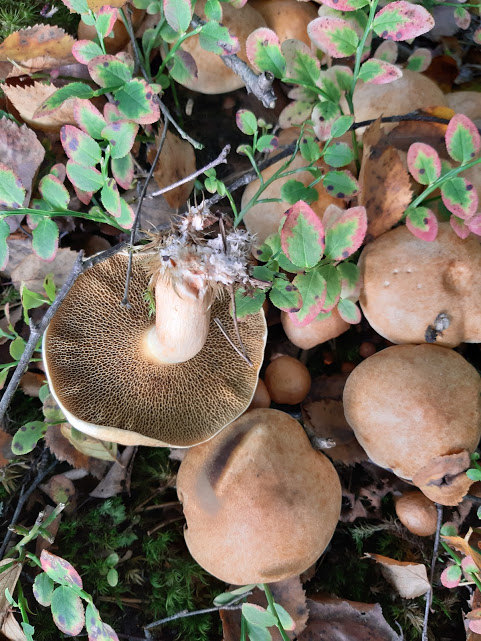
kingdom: Fungi
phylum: Basidiomycota
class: Agaricomycetes
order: Boletales
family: Suillaceae
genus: Suillus
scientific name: Suillus bovinus
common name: grovporet slimrørhat
